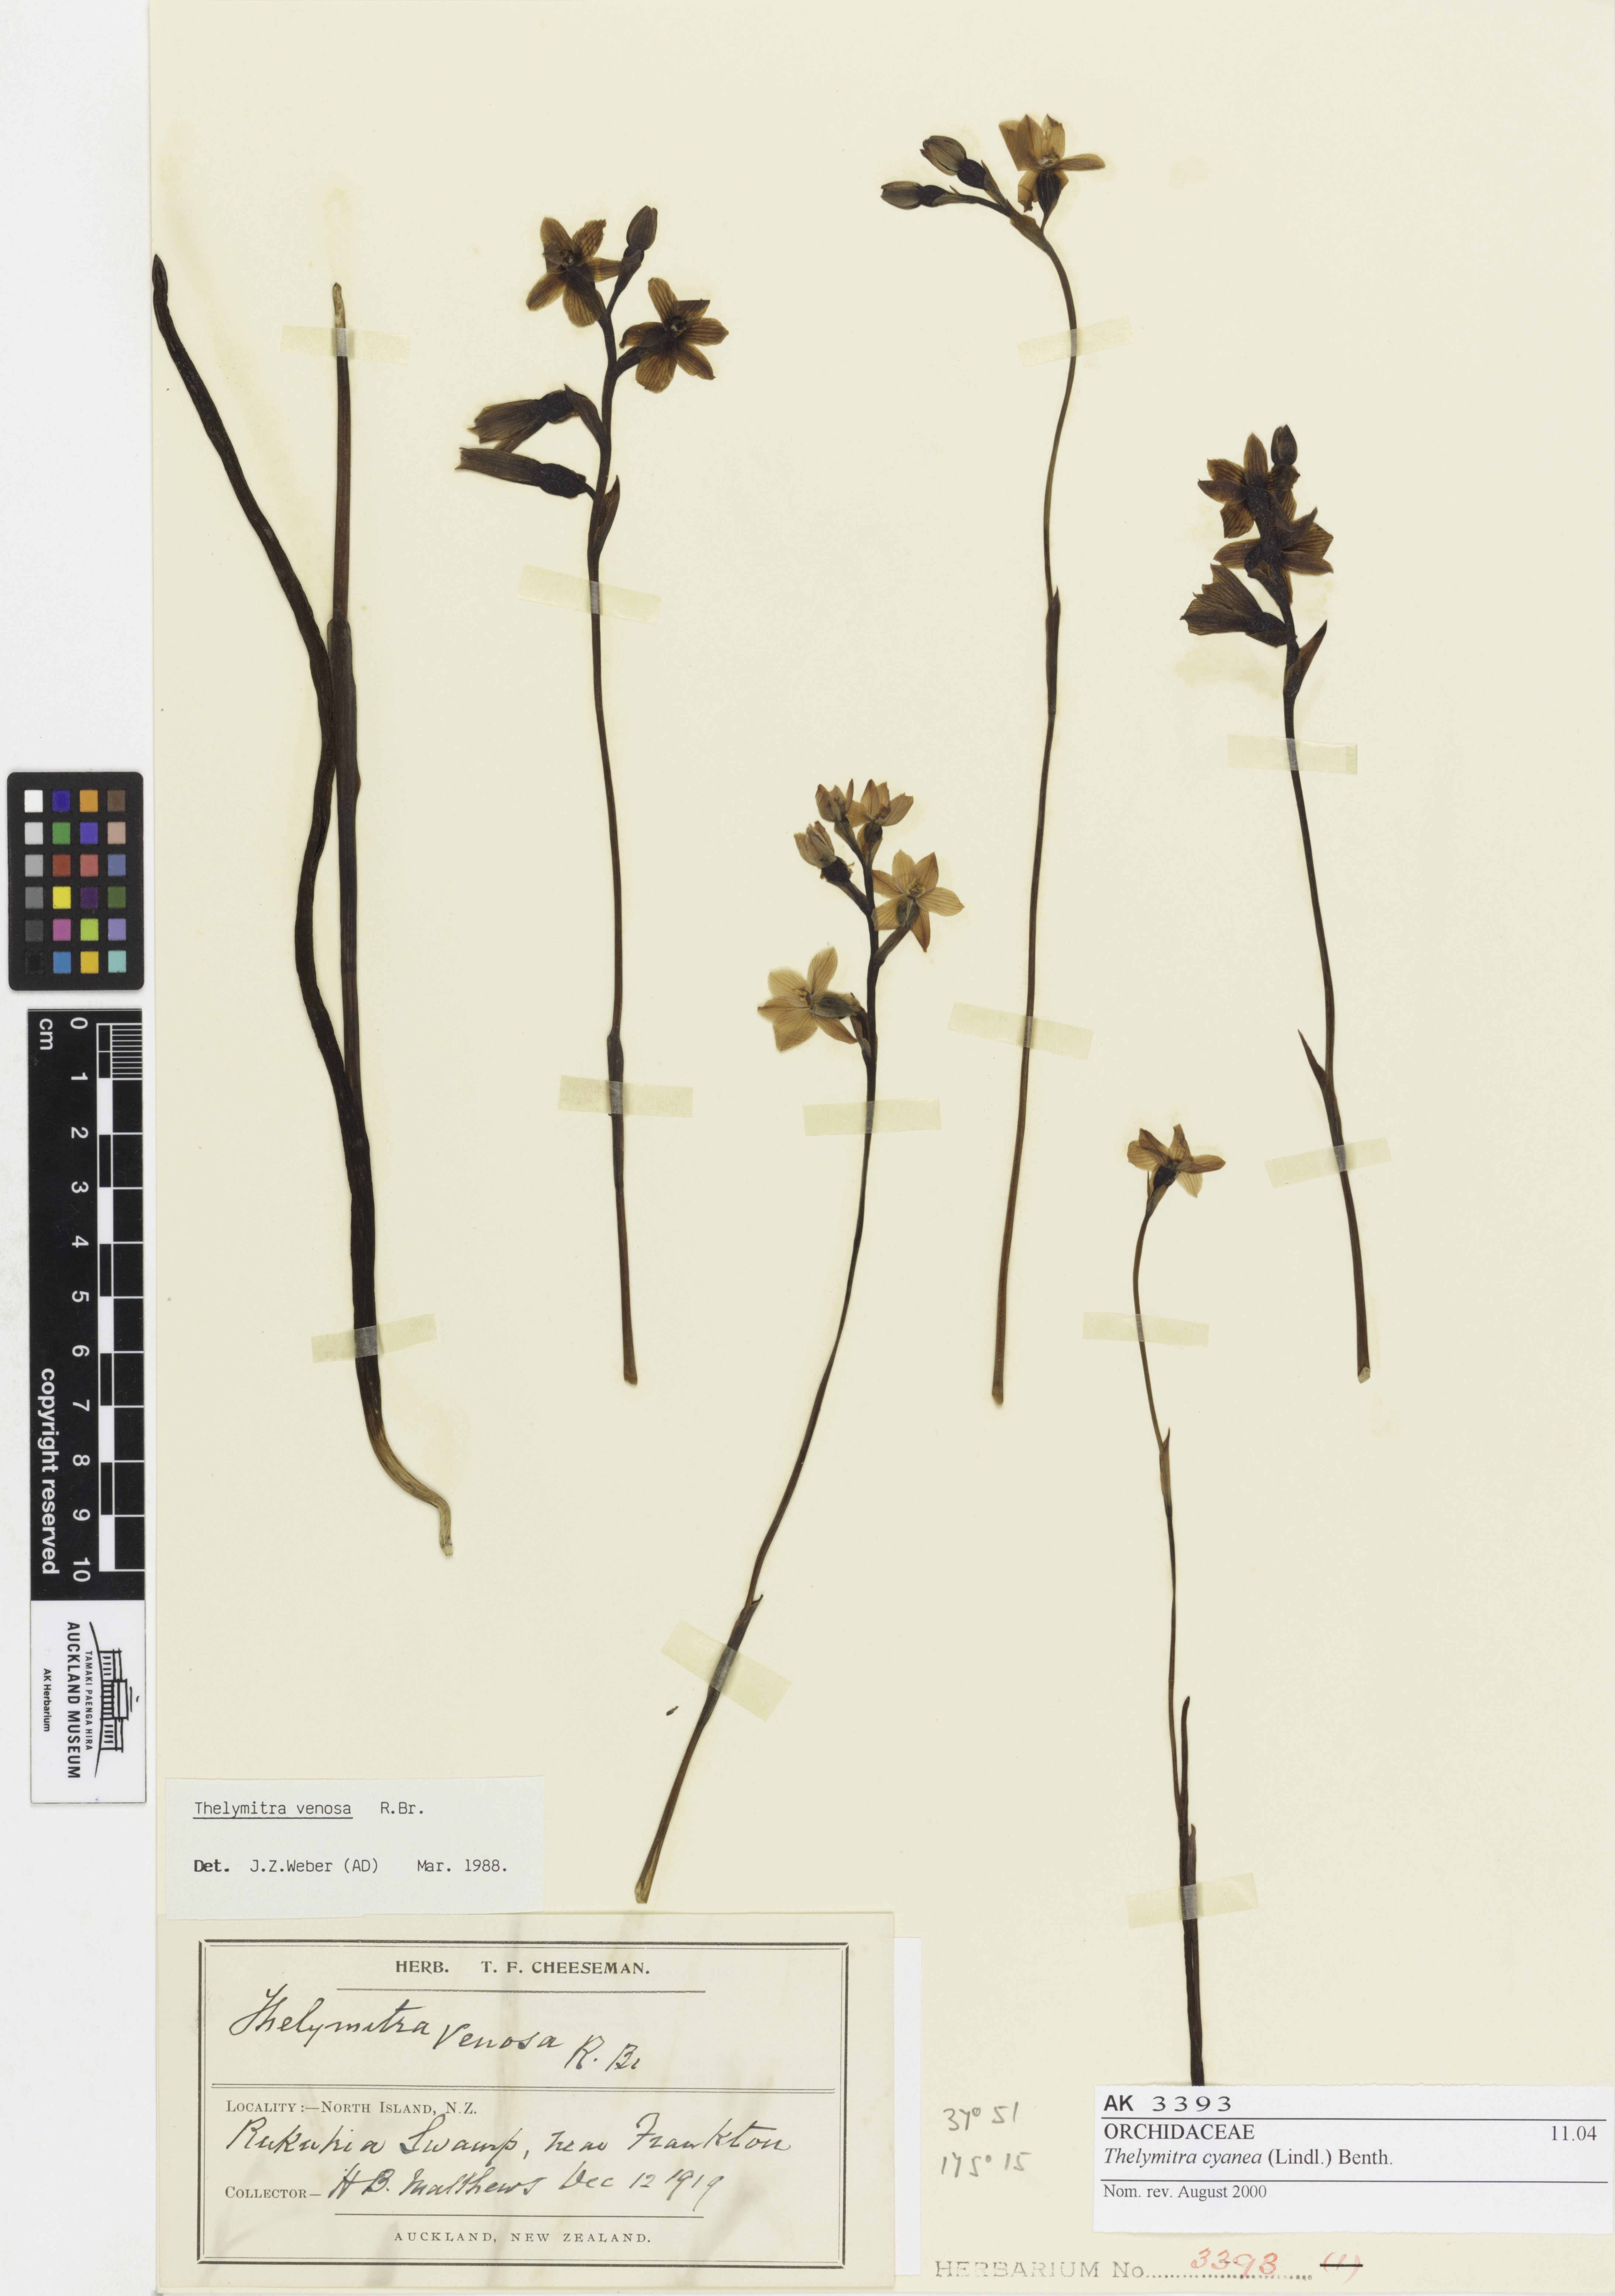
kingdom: Plantae
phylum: Tracheophyta
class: Liliopsida
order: Asparagales
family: Orchidaceae
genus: Thelymitra
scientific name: Thelymitra cyanea
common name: Blue sun-orchid
